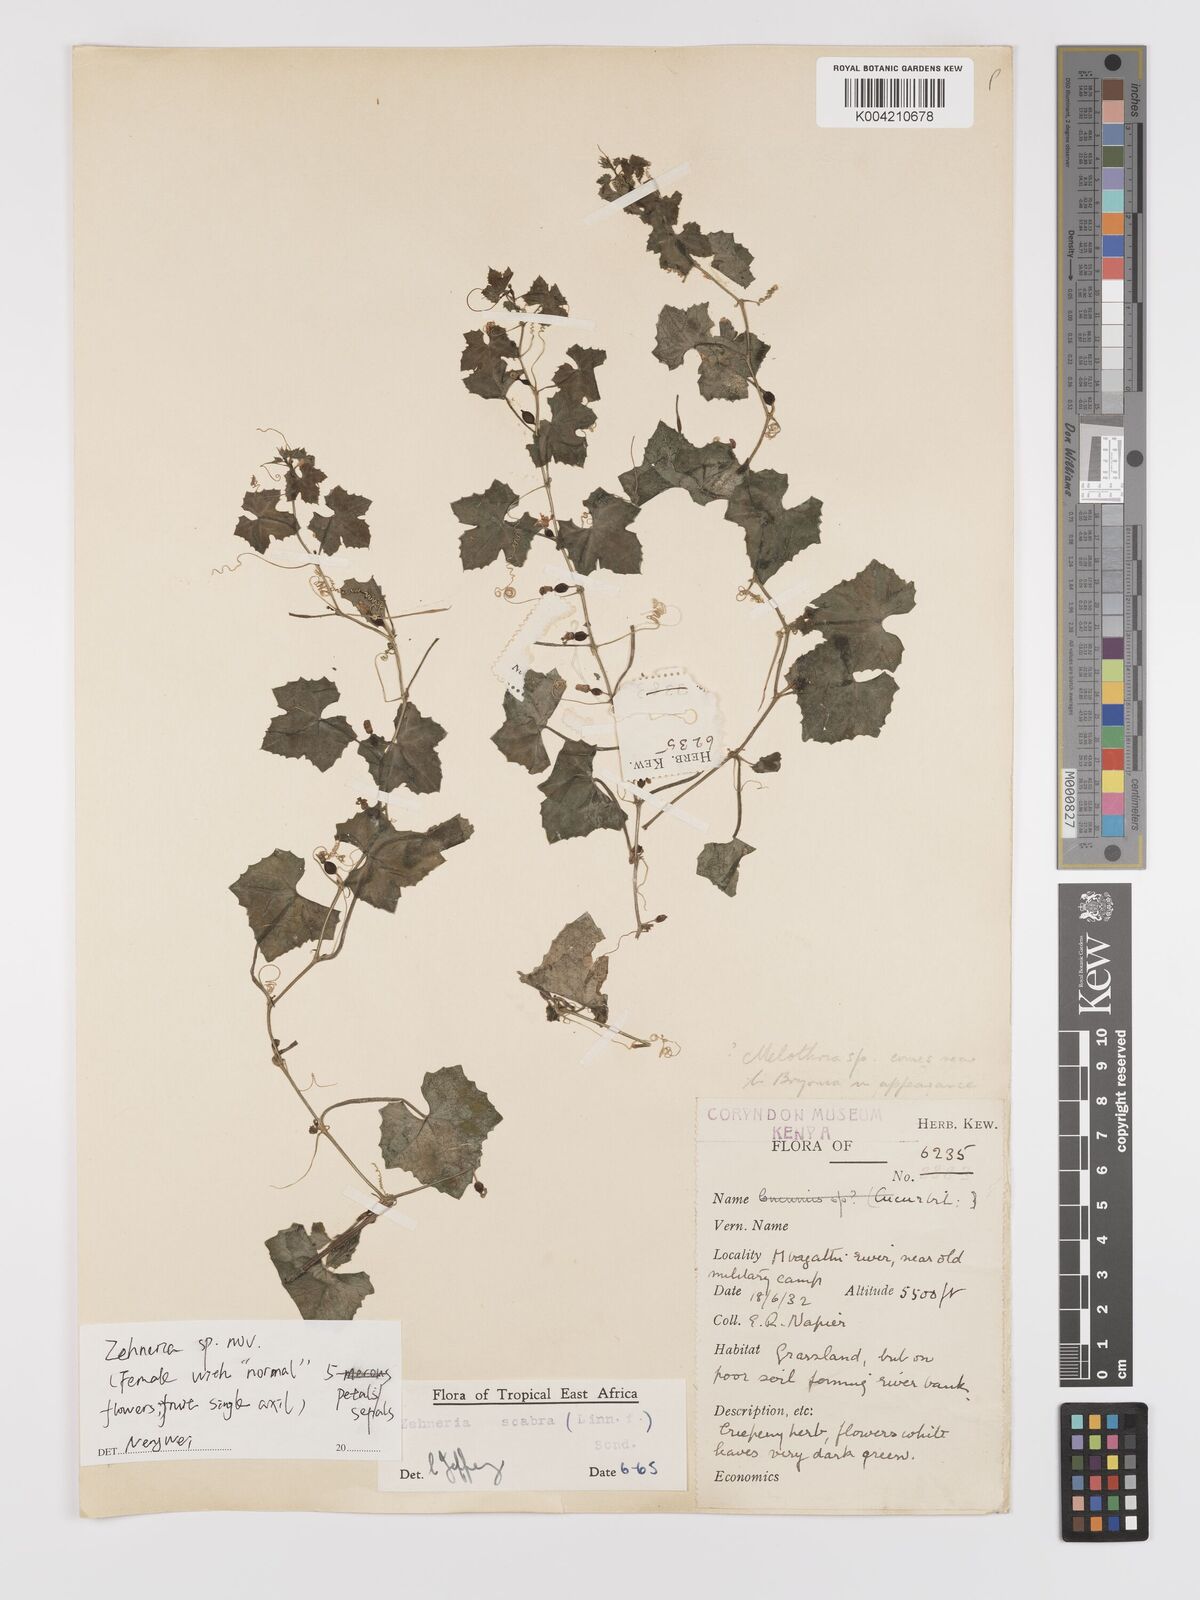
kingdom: Plantae
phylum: Tracheophyta
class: Magnoliopsida
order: Cucurbitales
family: Cucurbitaceae
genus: Zehneria
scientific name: Zehneria scabra
